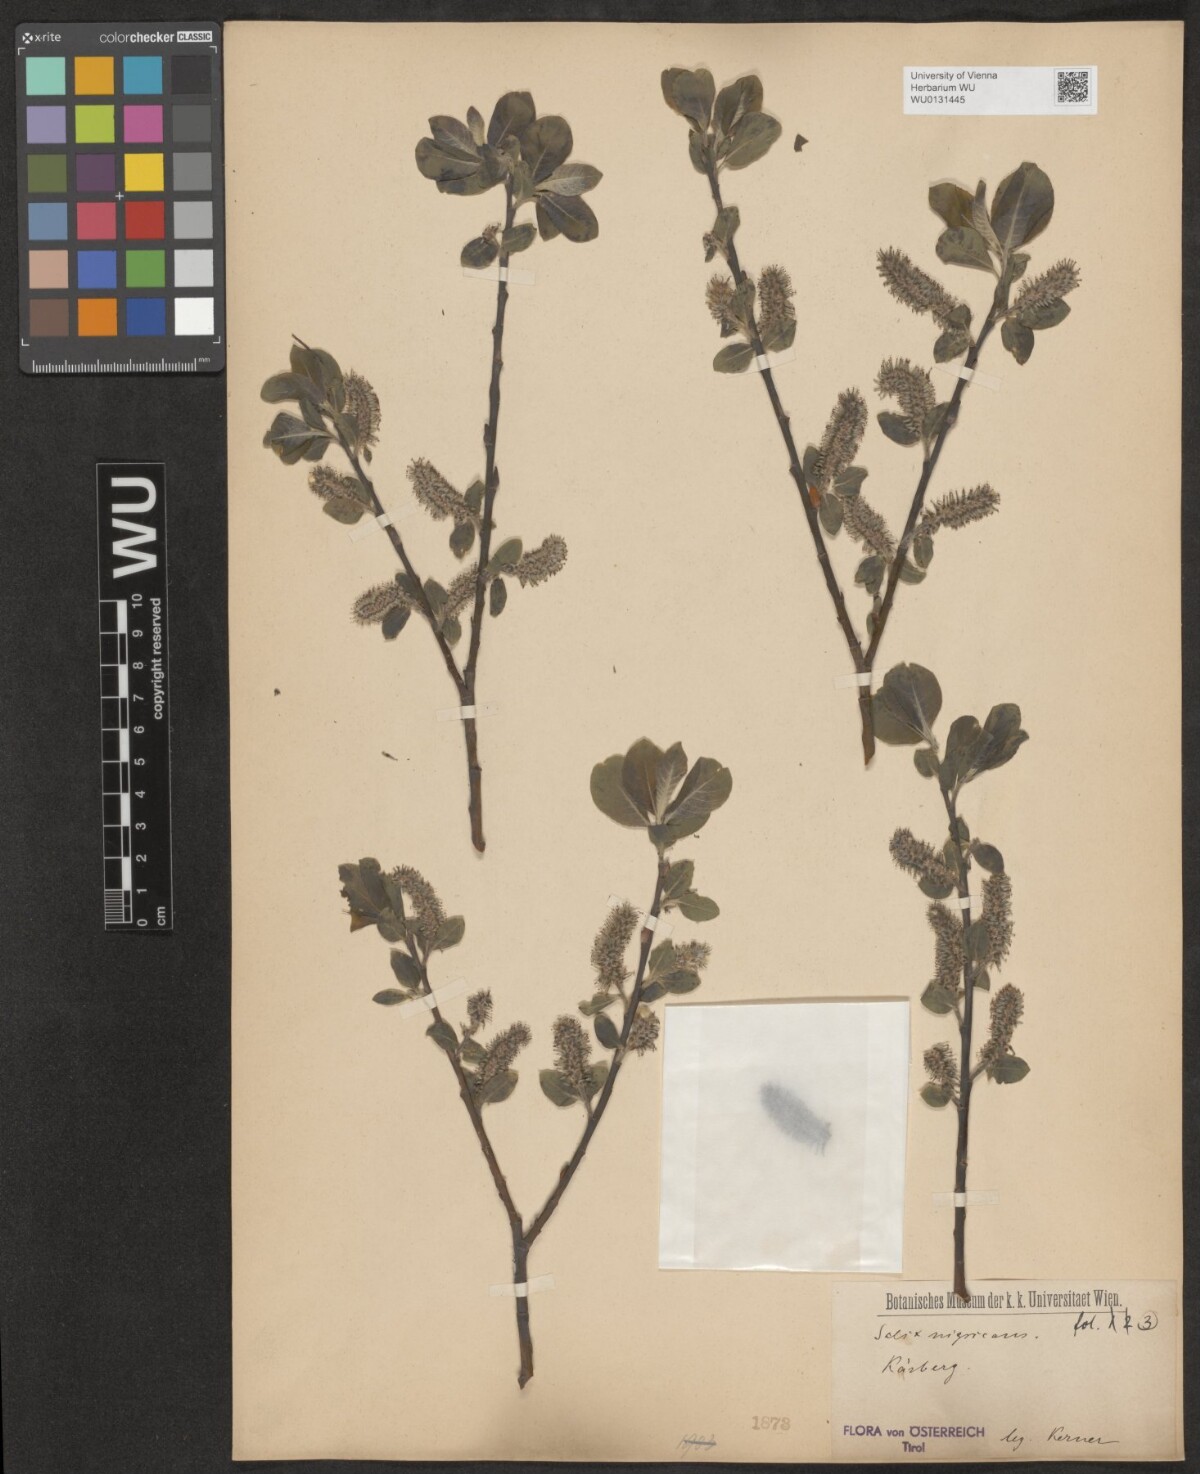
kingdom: Plantae
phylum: Tracheophyta
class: Magnoliopsida
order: Malpighiales
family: Salicaceae
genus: Salix
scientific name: Salix myrsinifolia
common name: Dark-leaved willow
